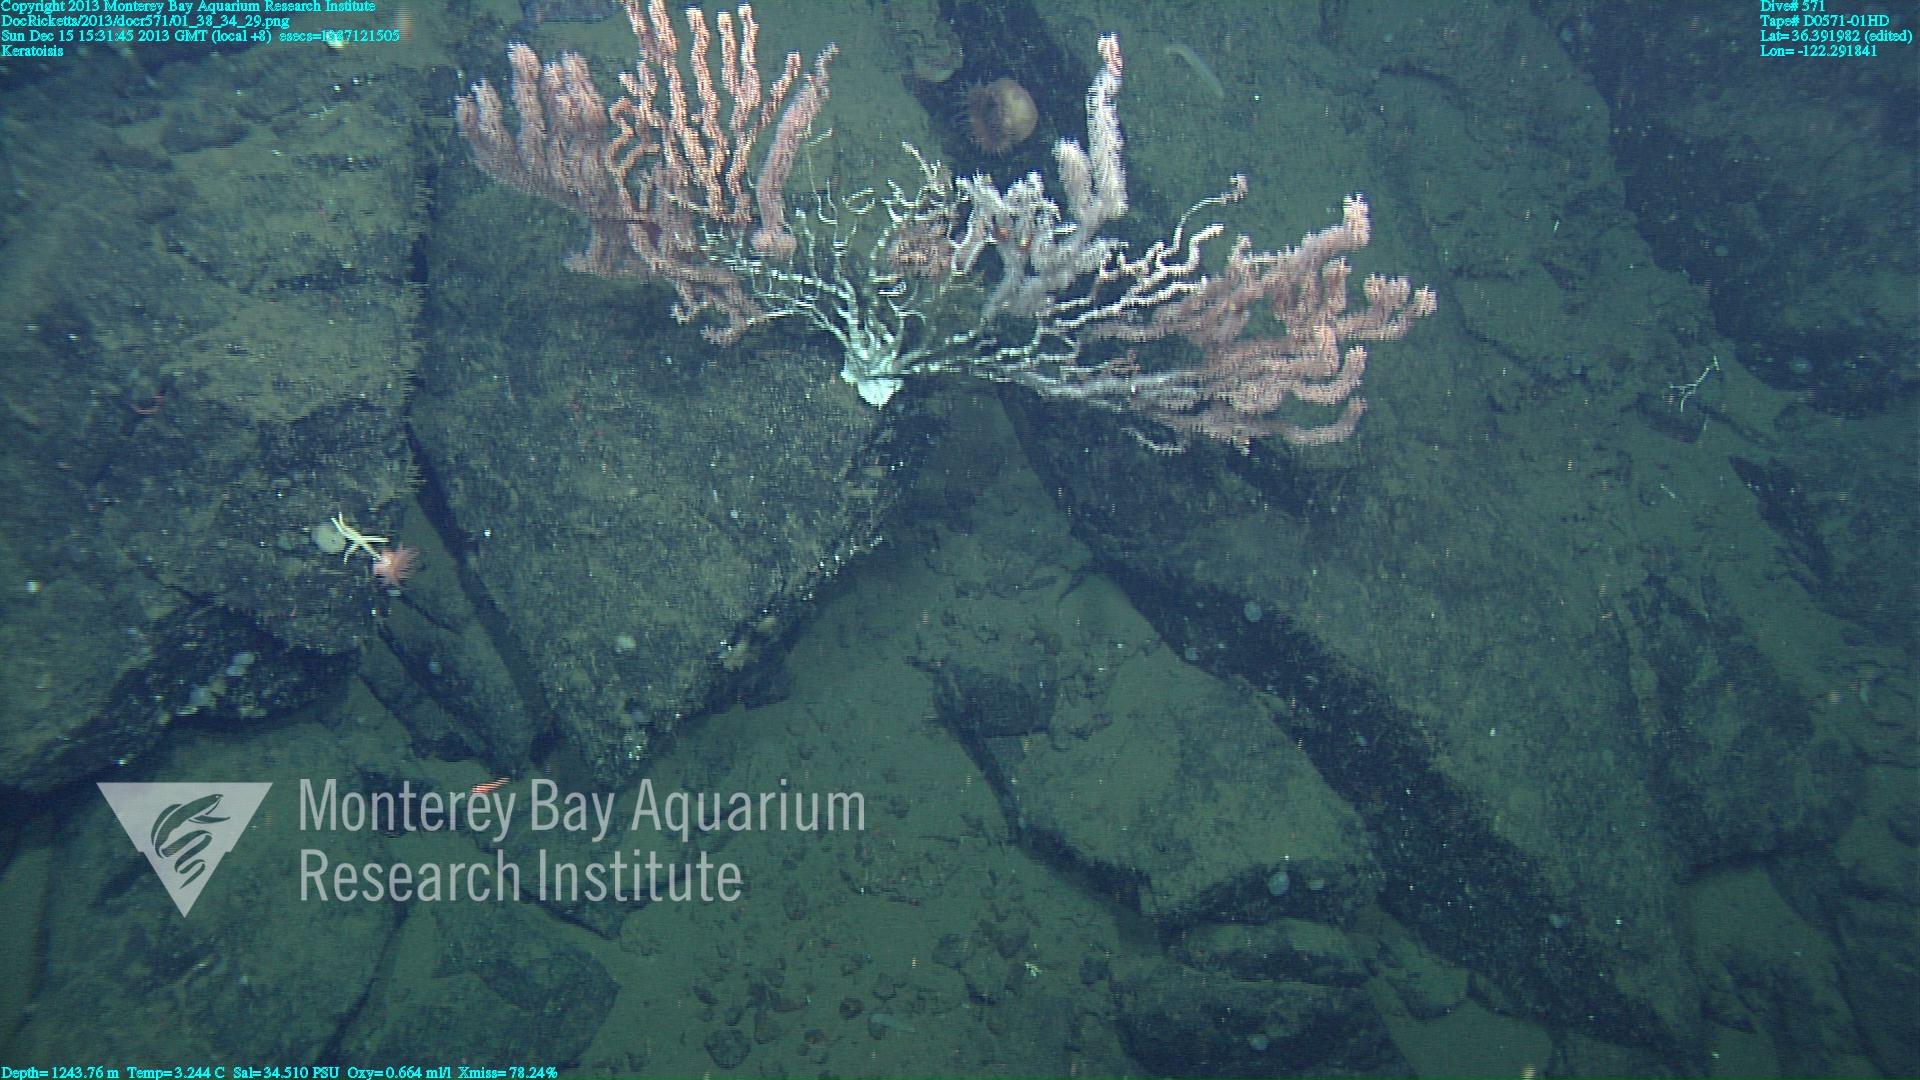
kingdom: Animalia
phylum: Cnidaria
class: Anthozoa
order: Scleralcyonacea
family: Keratoisididae
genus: Keratoisis
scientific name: Keratoisis
